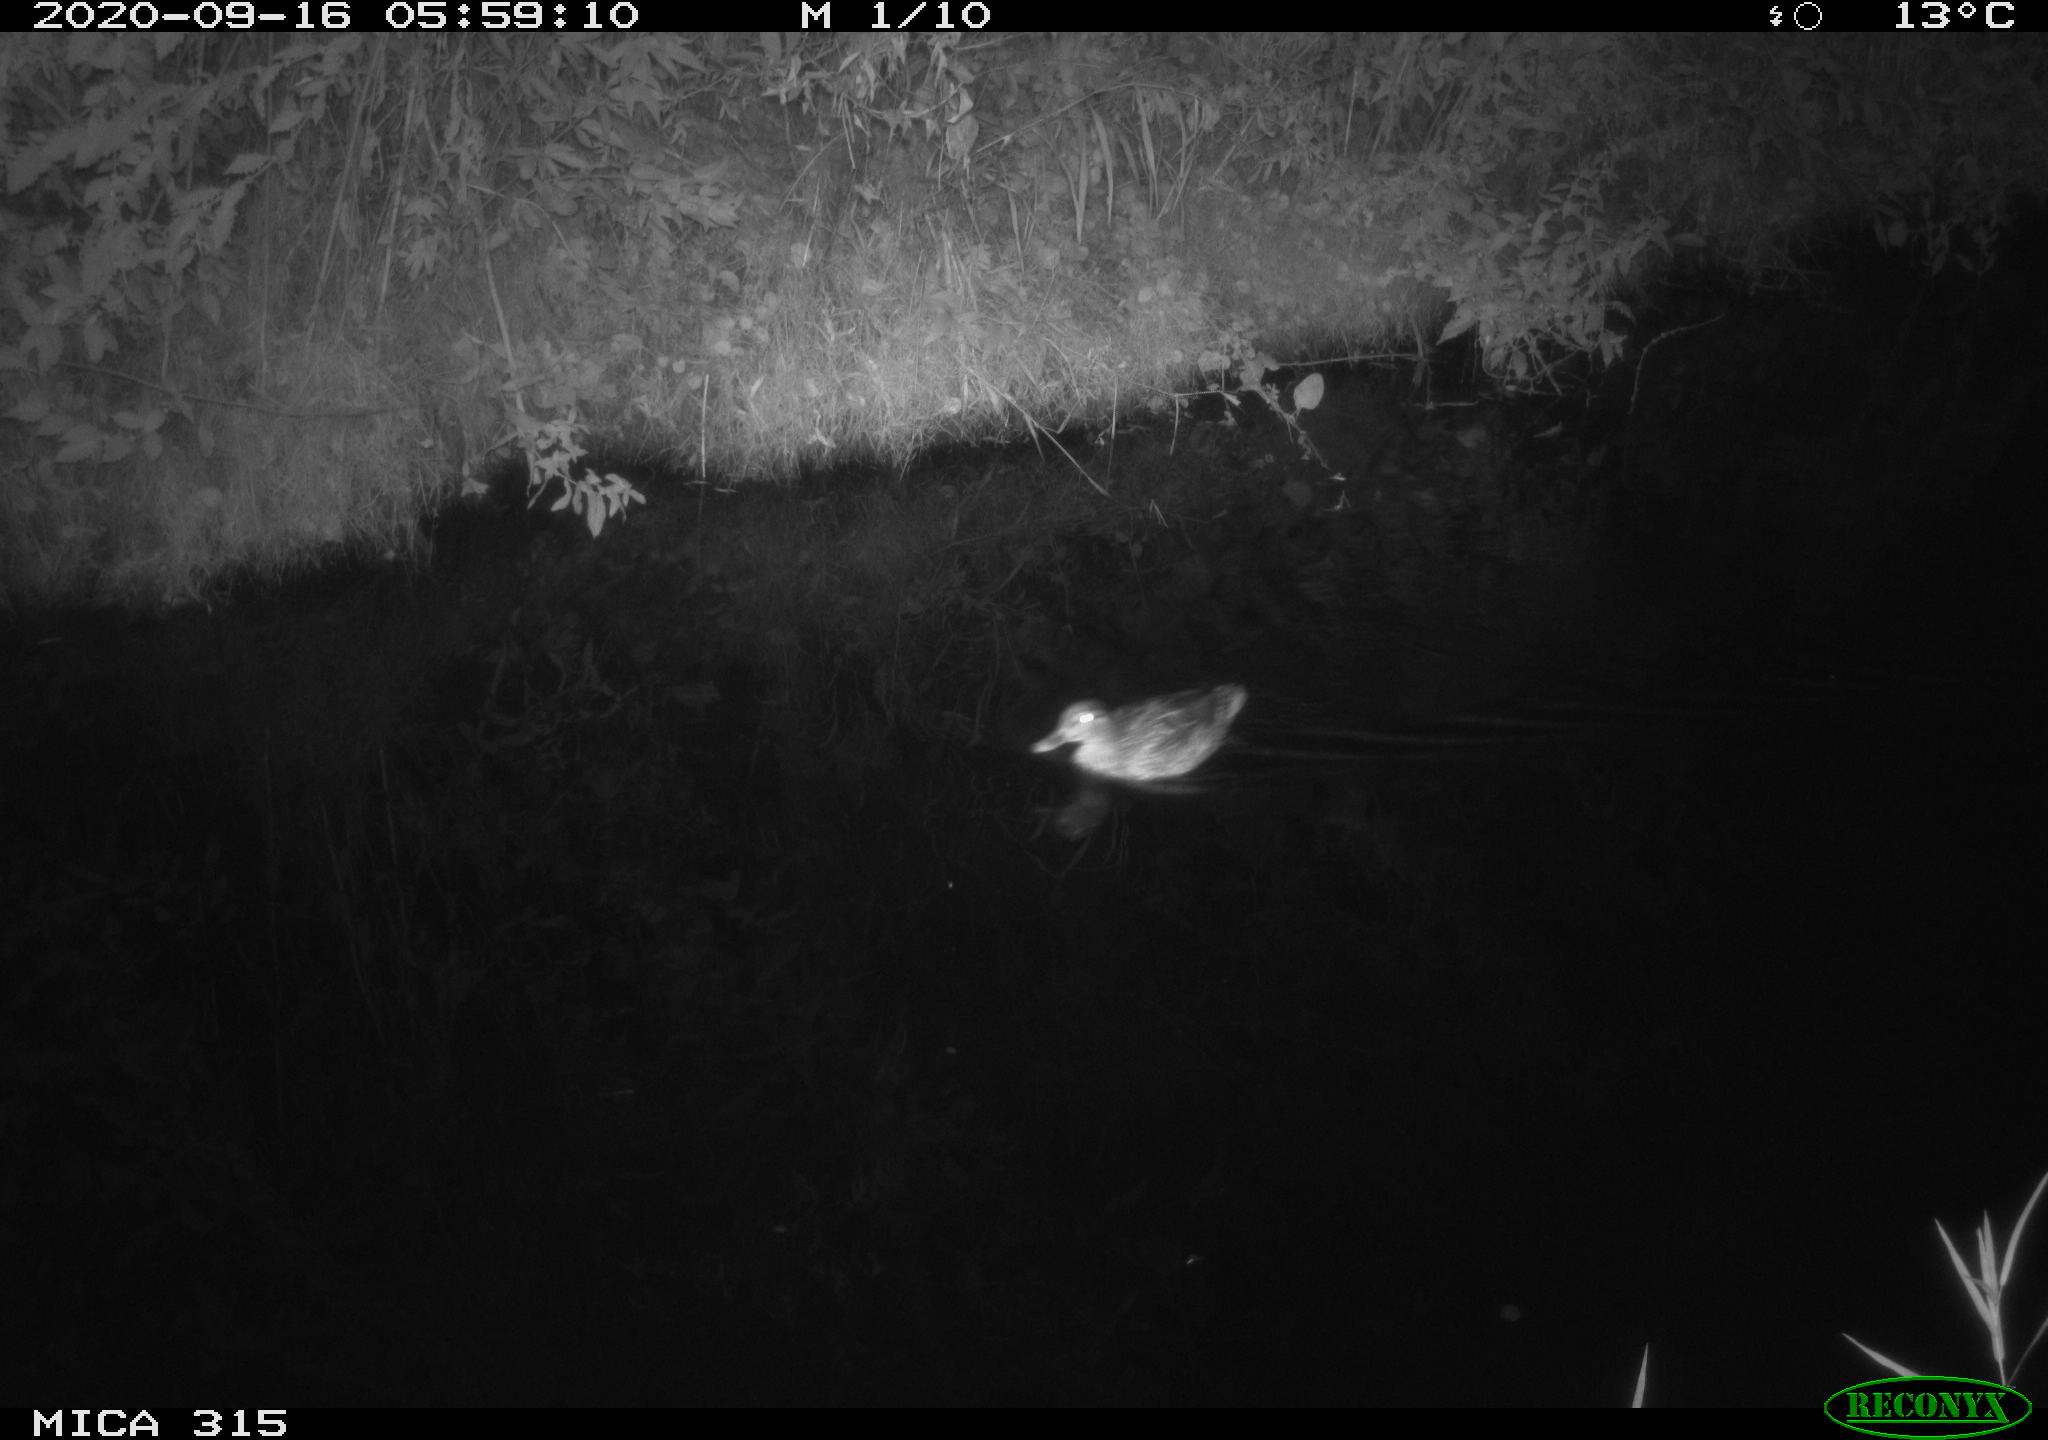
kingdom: Animalia
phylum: Chordata
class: Aves
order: Anseriformes
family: Anatidae
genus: Anas
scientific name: Anas platyrhynchos
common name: Mallard
